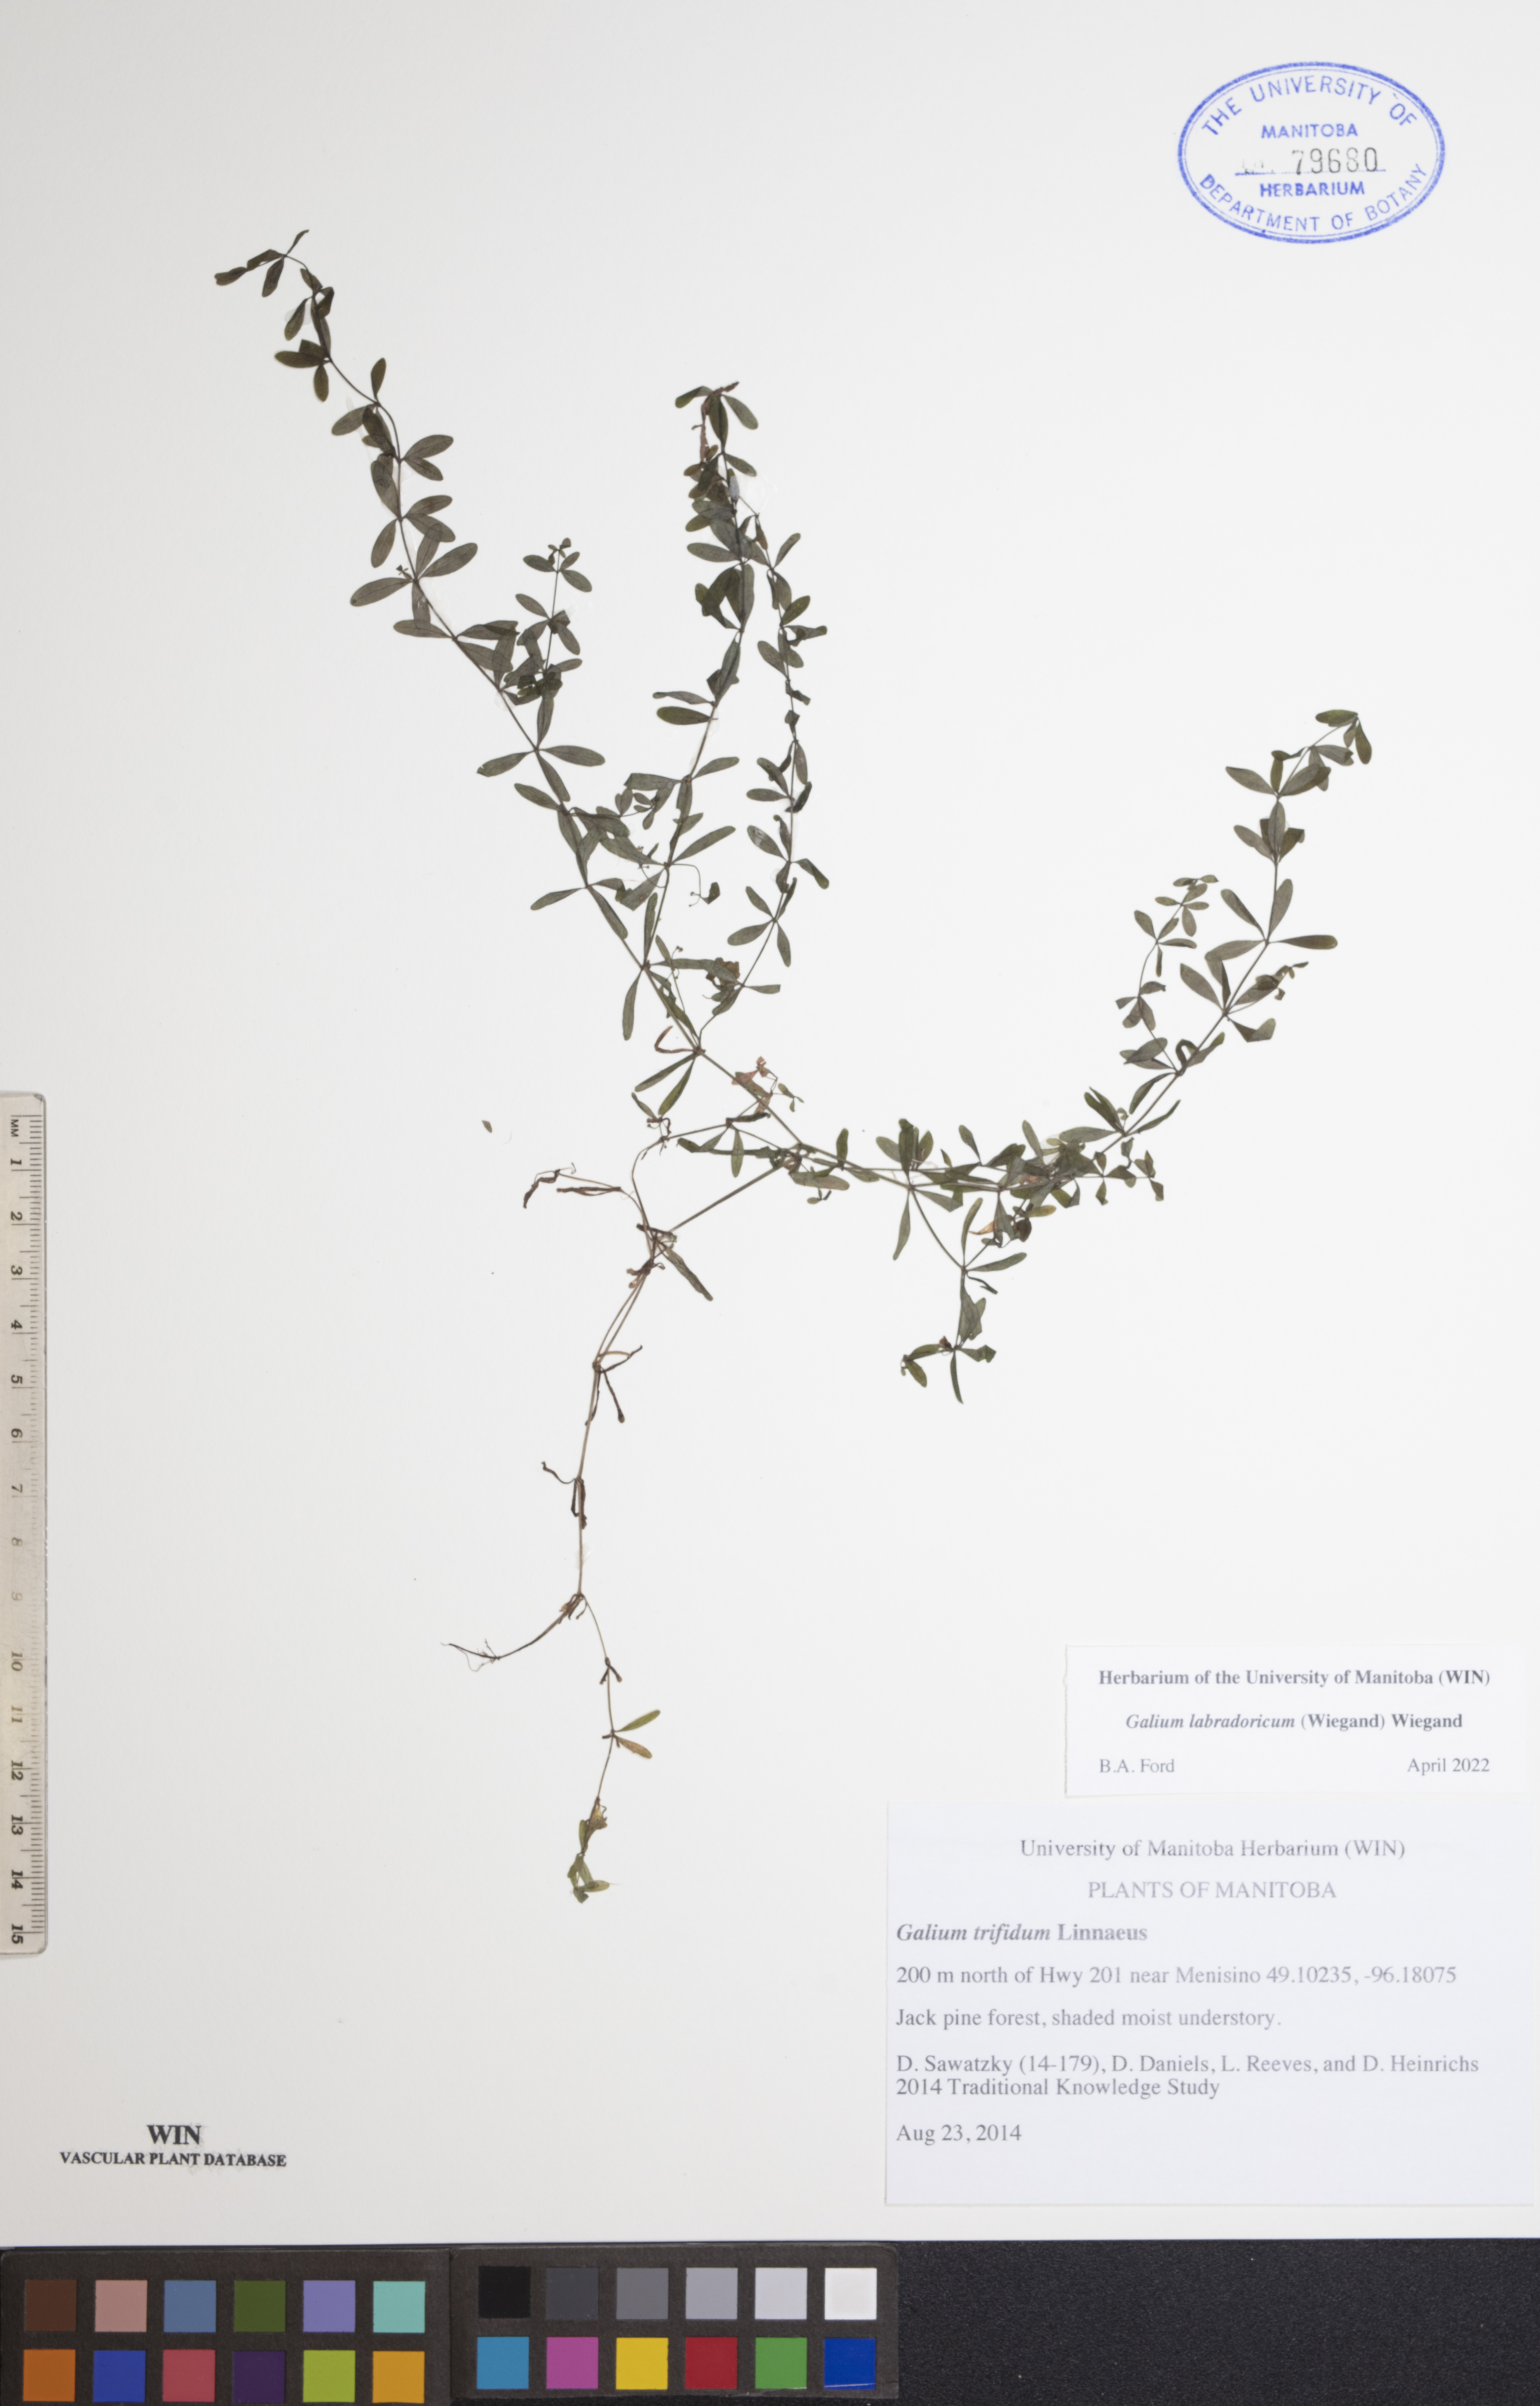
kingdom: Plantae
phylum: Tracheophyta
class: Magnoliopsida
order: Gentianales
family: Rubiaceae
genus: Galium
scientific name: Galium labradoricum
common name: Labrador bedstraw
